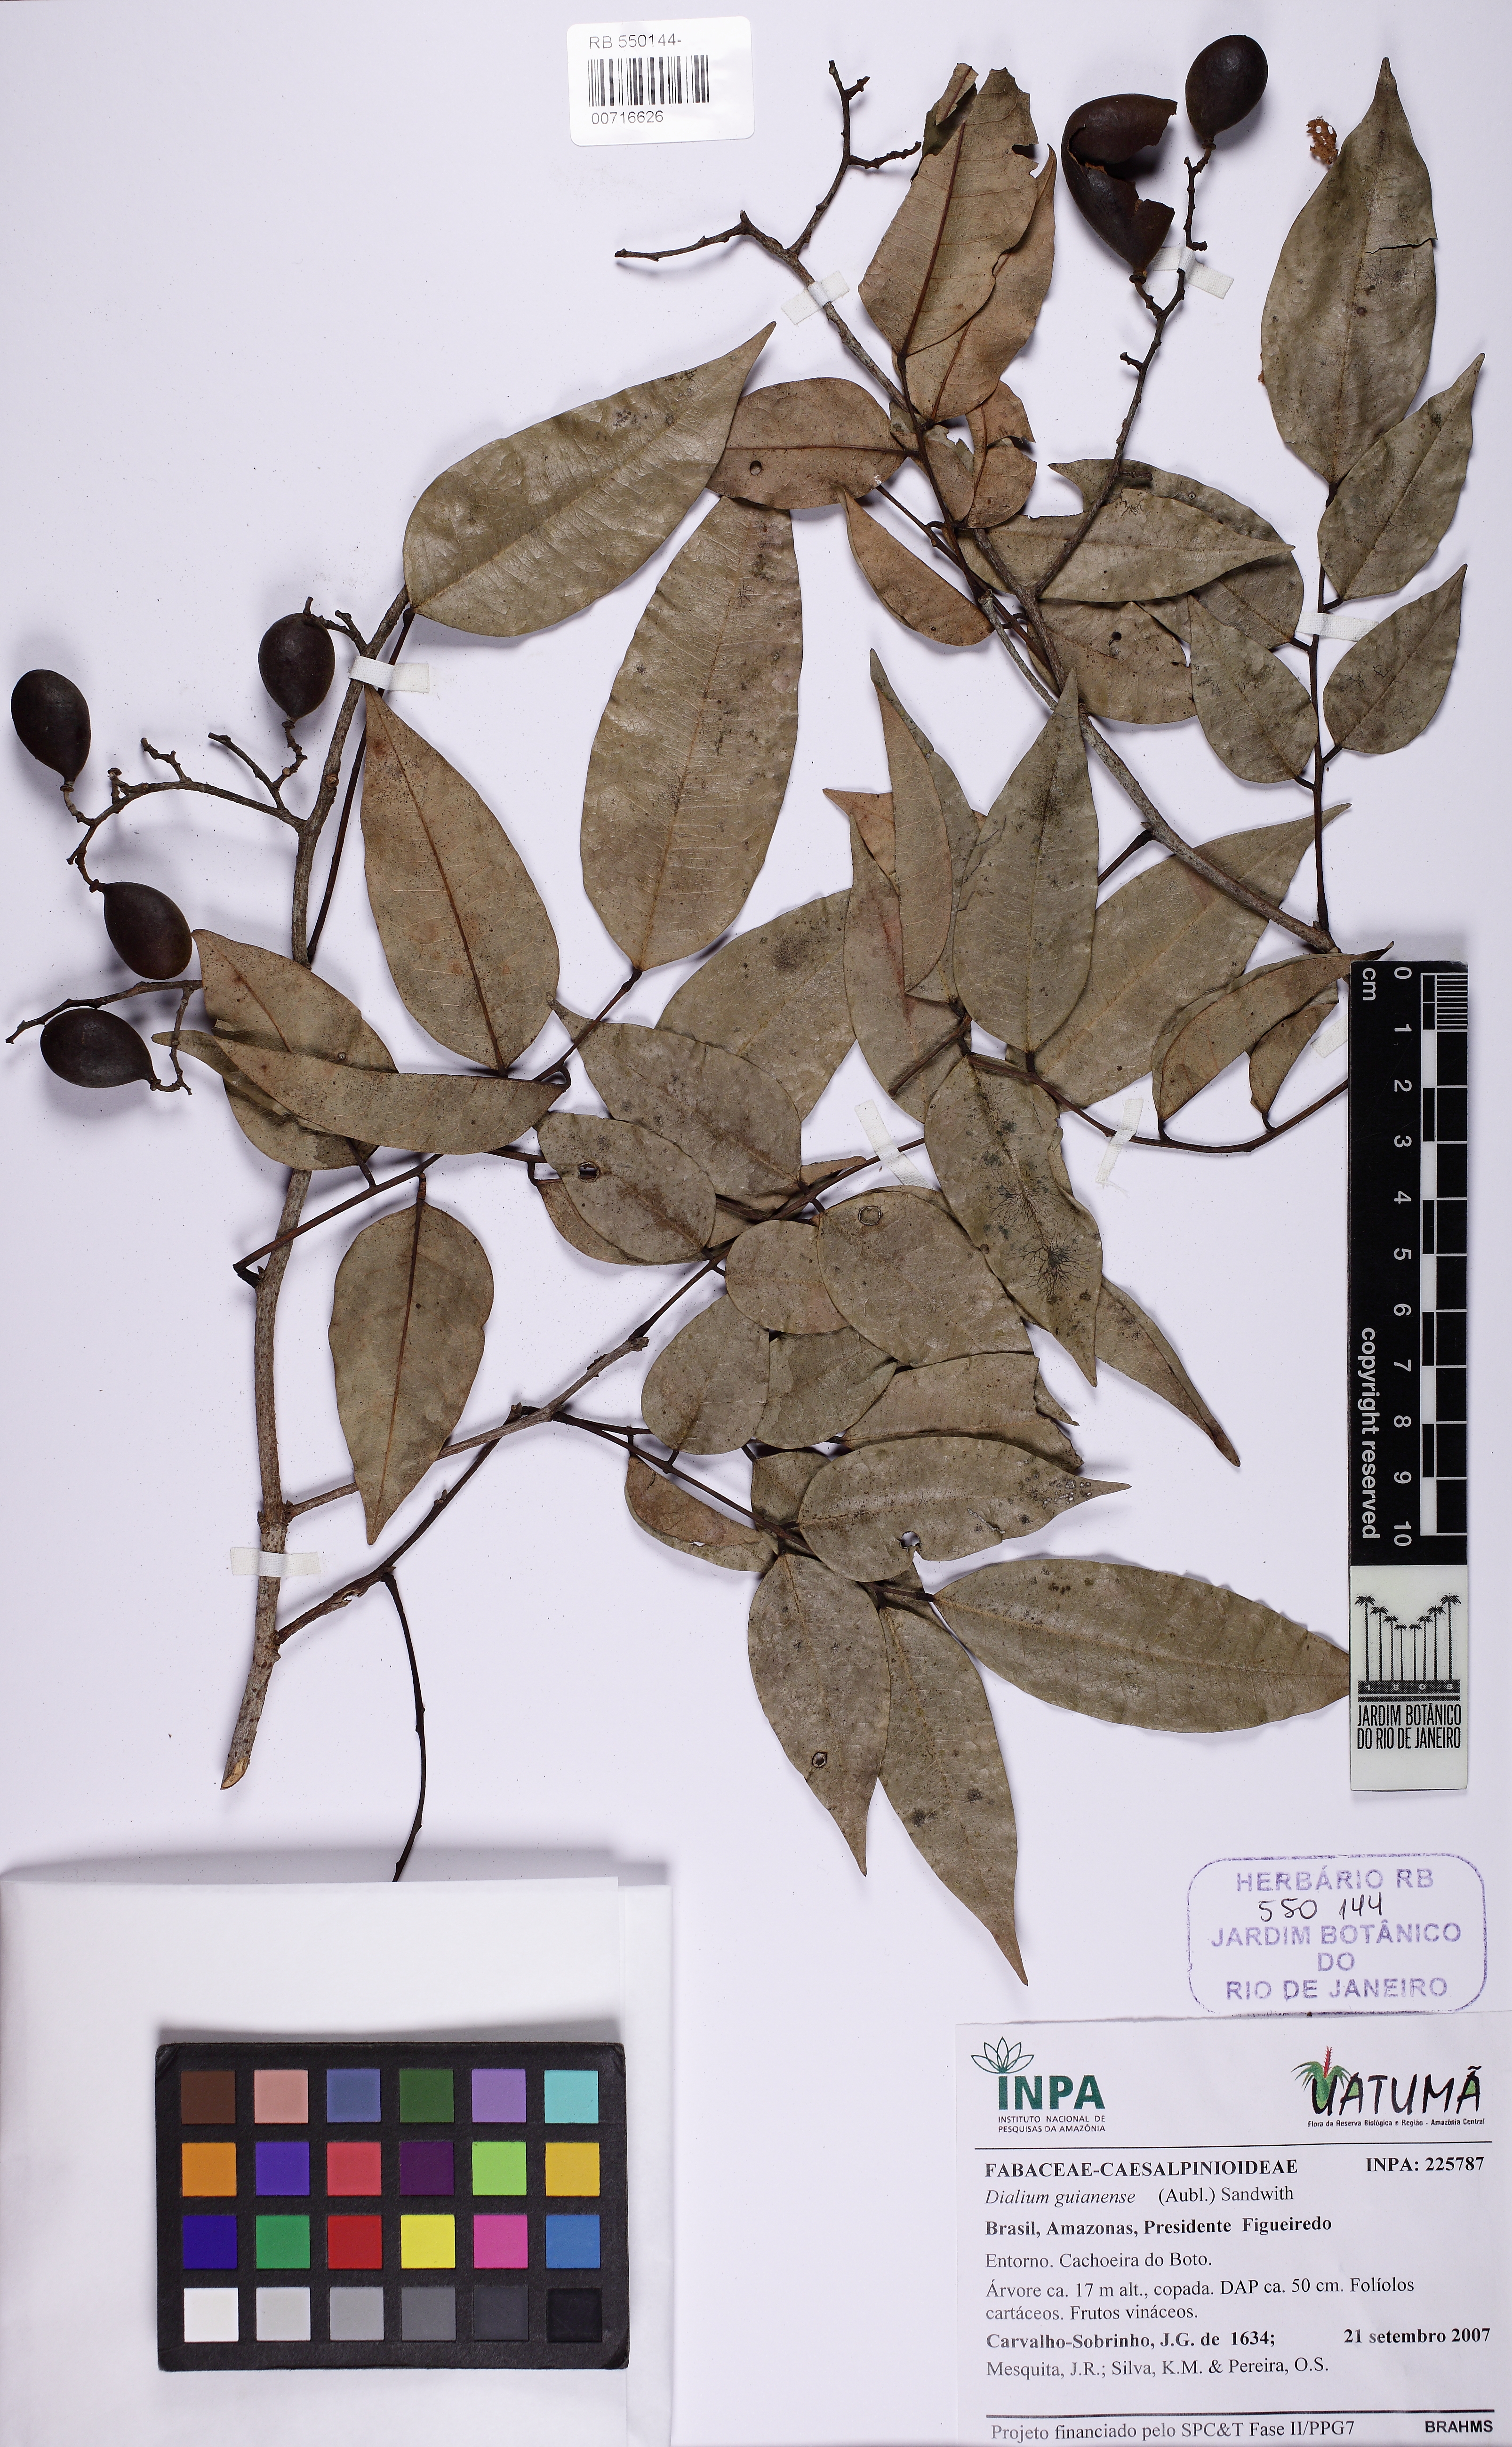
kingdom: Plantae
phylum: Tracheophyta
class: Magnoliopsida
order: Fabales
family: Fabaceae
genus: Dialium
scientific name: Dialium guianense
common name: Ironwood
